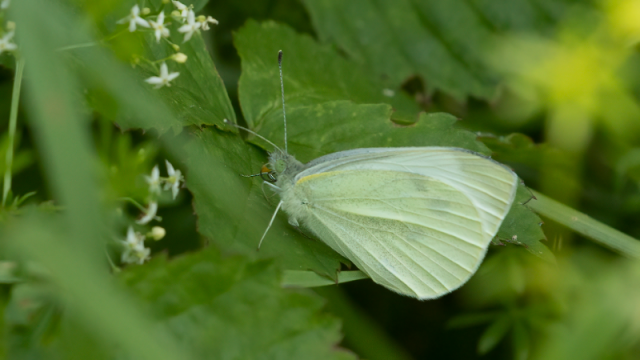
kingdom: Animalia
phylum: Arthropoda
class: Insecta
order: Lepidoptera
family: Pieridae
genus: Pieris
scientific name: Pieris rapae
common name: Cabbage White
